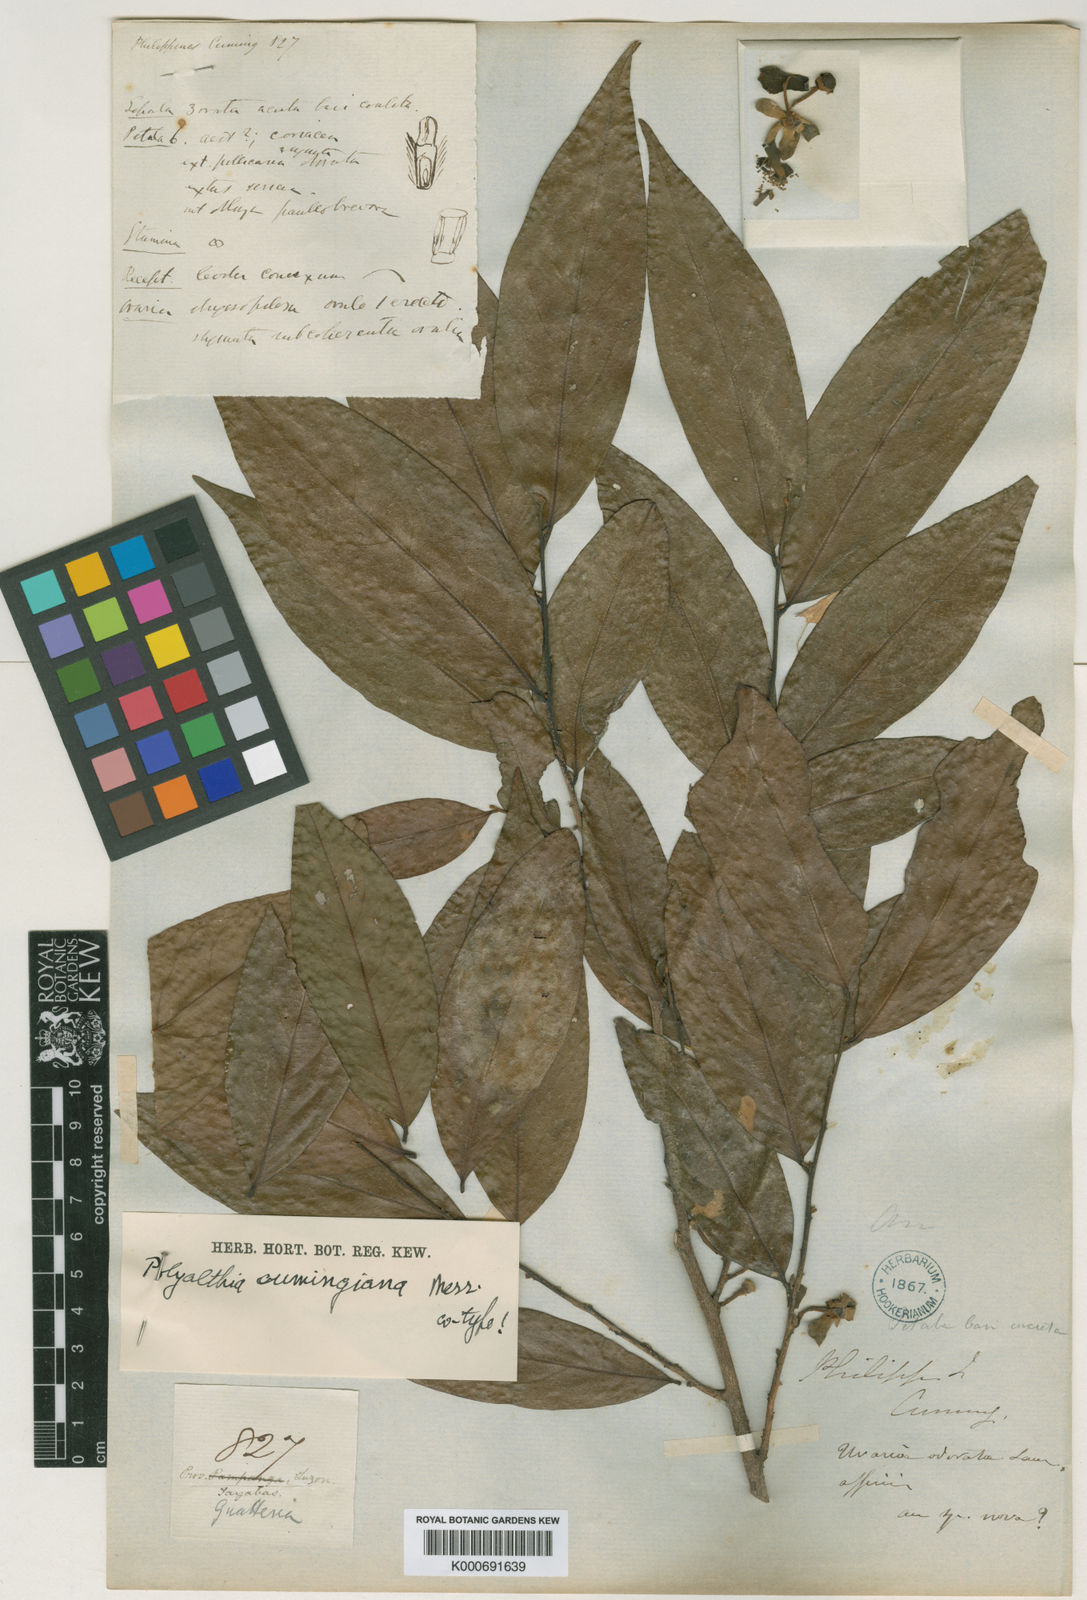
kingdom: Plantae
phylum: Tracheophyta
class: Magnoliopsida
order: Magnoliales
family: Annonaceae
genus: Hubera
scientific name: Hubera jenkinsii
